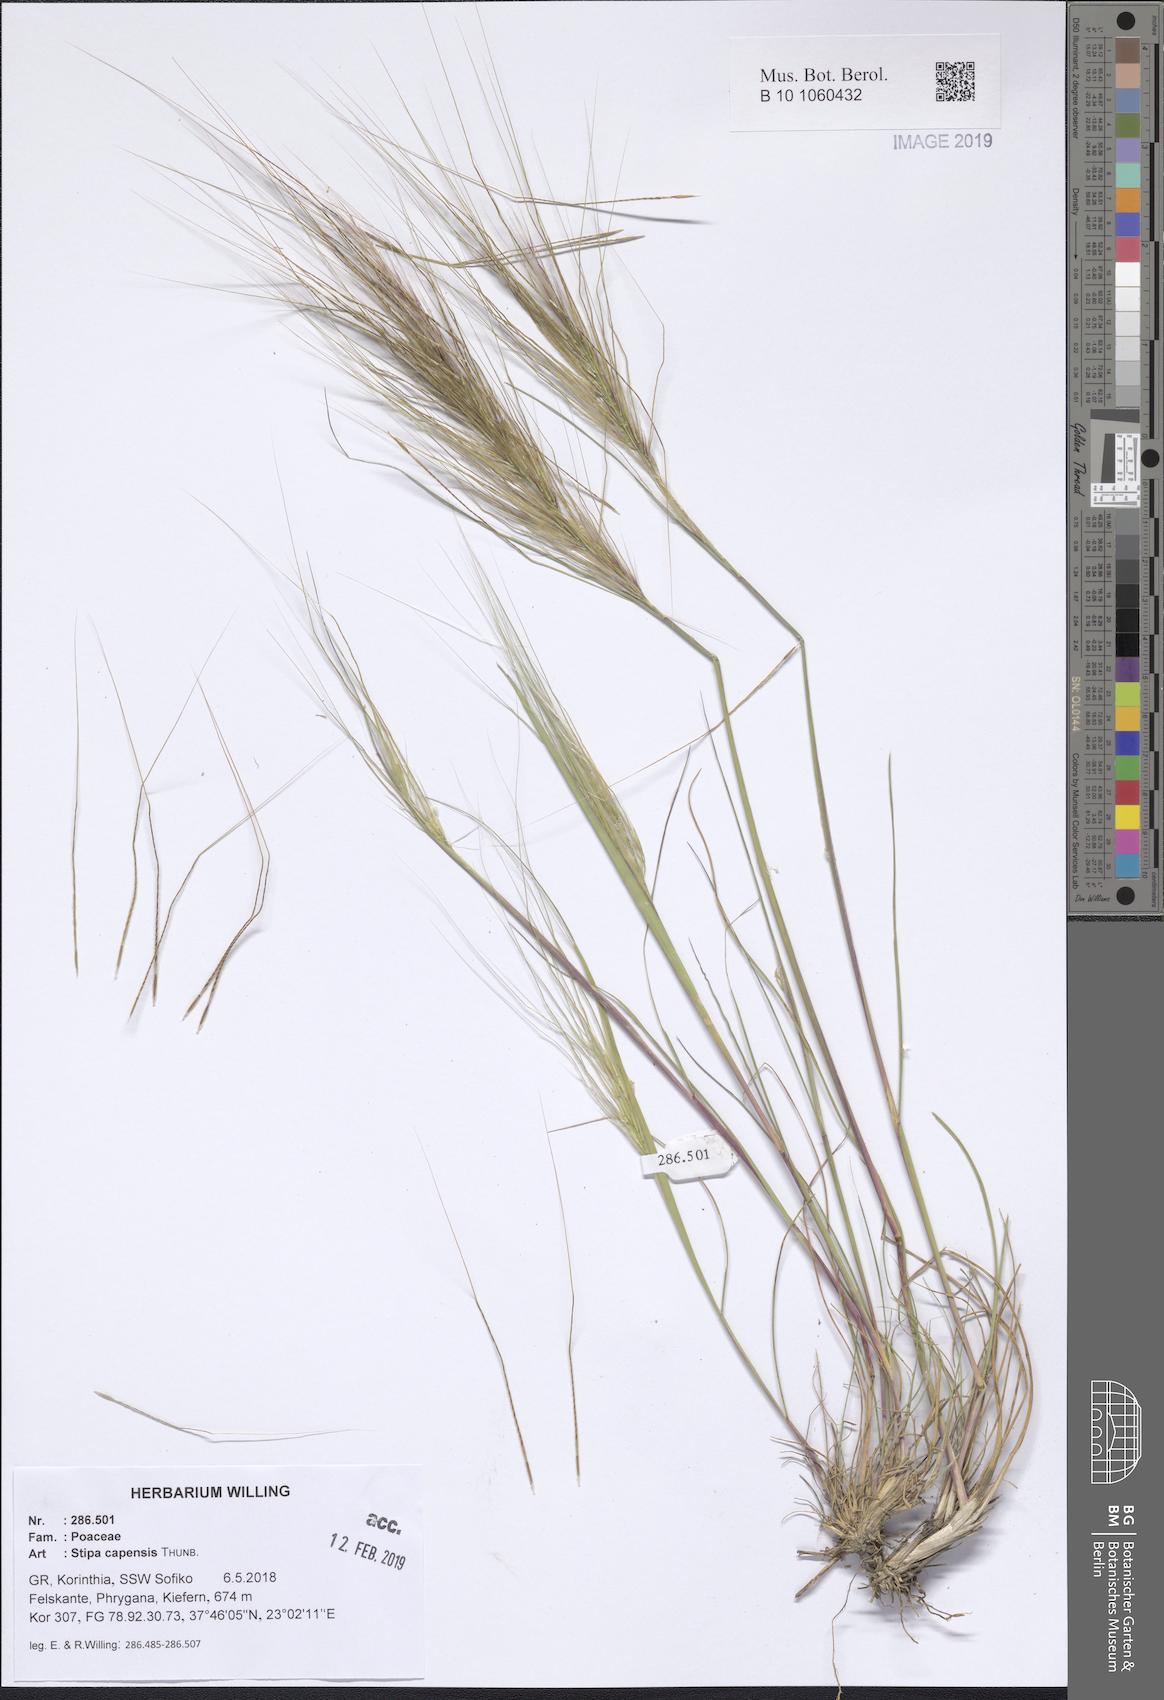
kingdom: Plantae
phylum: Tracheophyta
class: Liliopsida
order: Poales
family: Poaceae
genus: Stipellula
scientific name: Stipellula capensis
